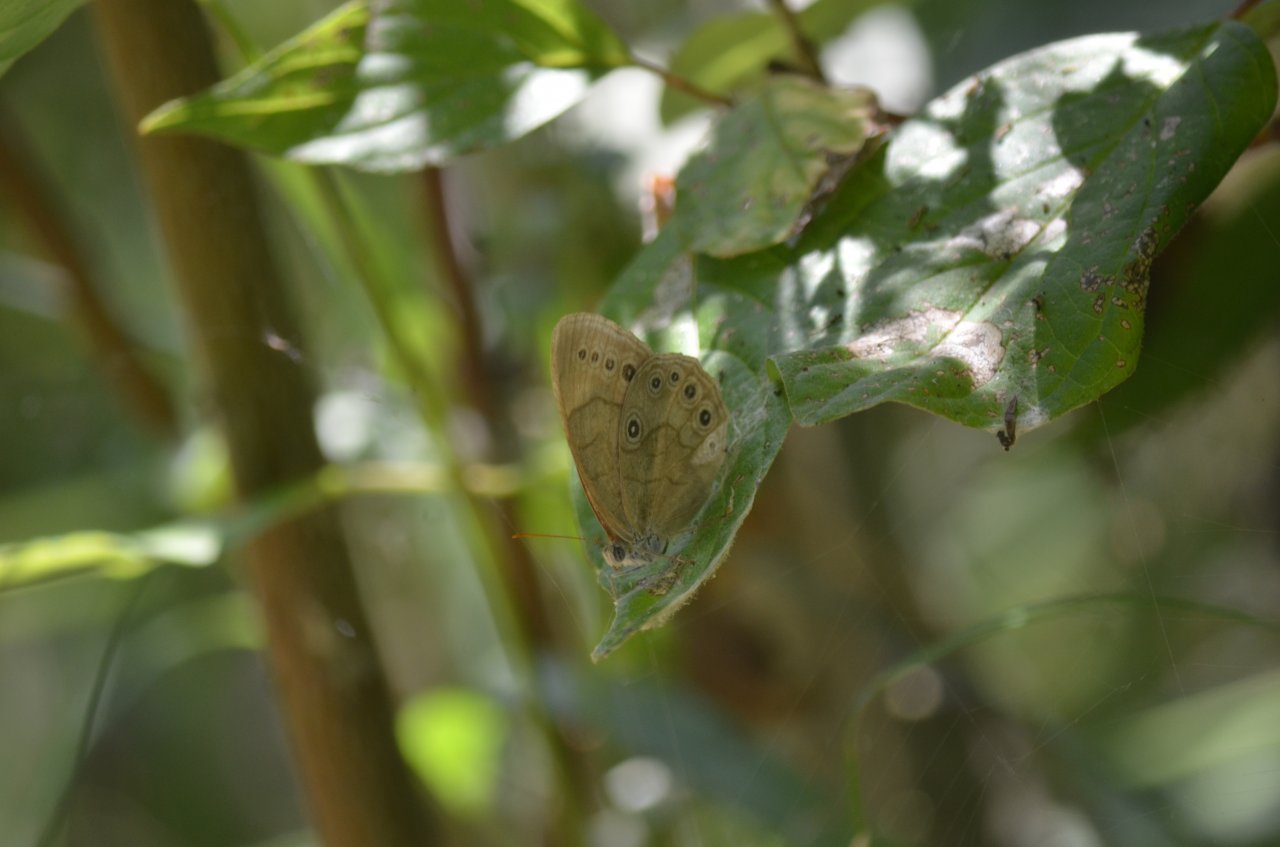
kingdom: Animalia
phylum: Arthropoda
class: Insecta
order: Lepidoptera
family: Nymphalidae
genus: Lethe
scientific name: Lethe eurydice
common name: Appalachian Eyed Brown
